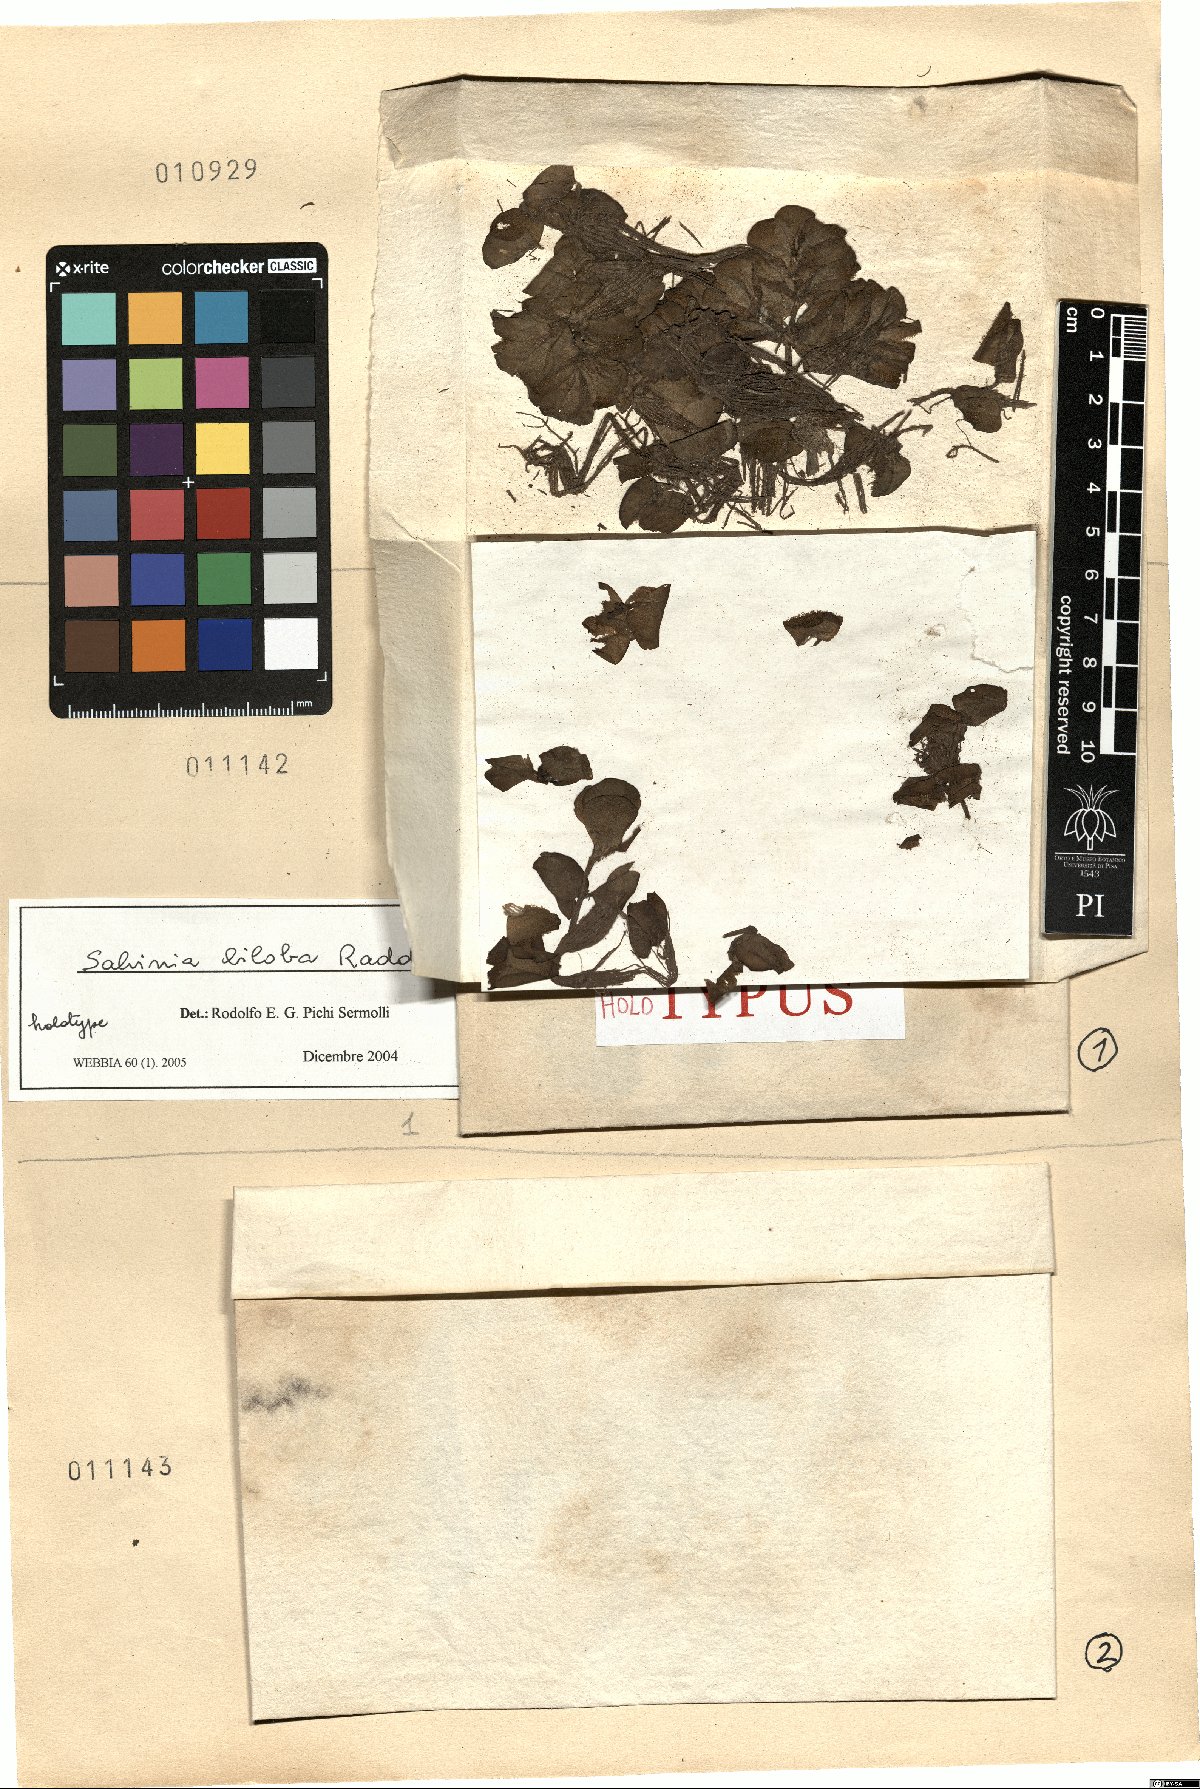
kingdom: Plantae
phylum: Tracheophyta
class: Polypodiopsida
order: Salviniales
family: Salviniaceae
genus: Salvinia
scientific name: Salvinia biloba
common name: Giant salvinia
